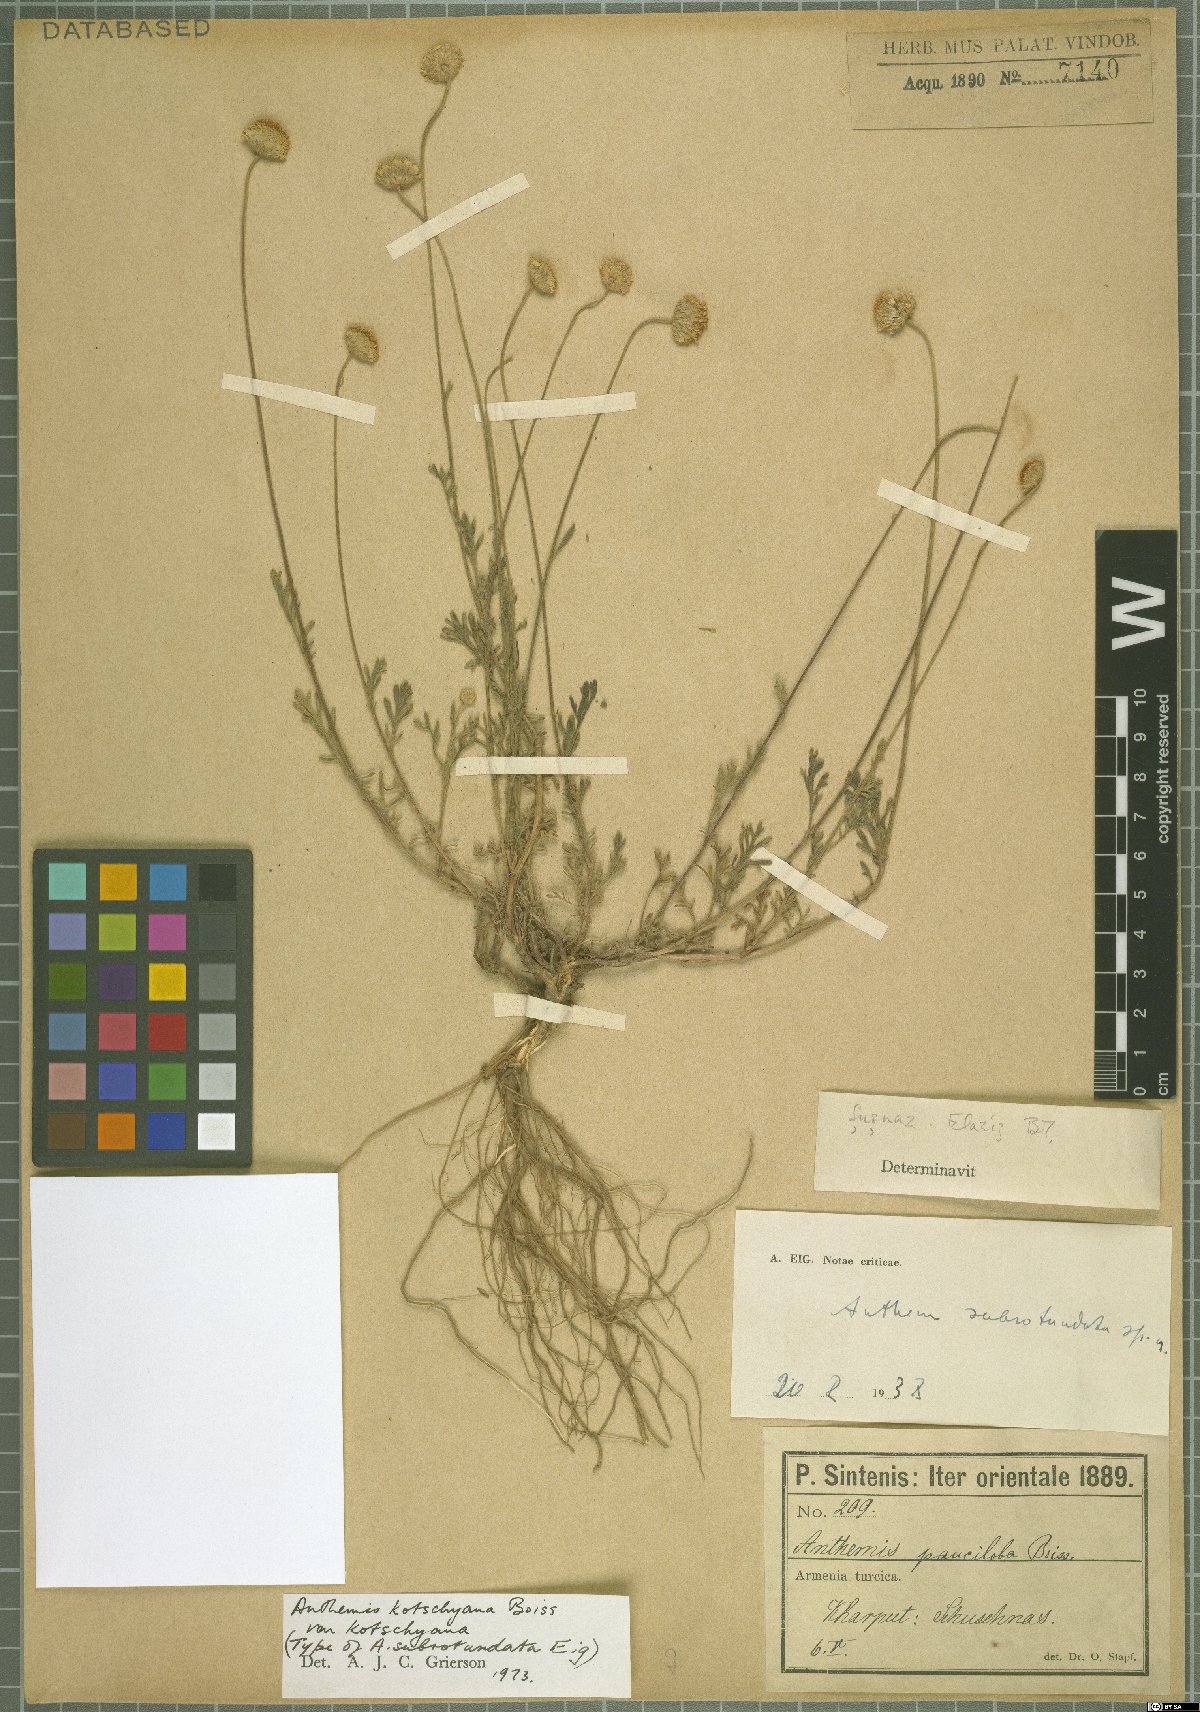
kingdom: Plantae
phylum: Tracheophyta
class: Magnoliopsida
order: Asterales
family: Asteraceae
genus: Anthemis
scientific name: Anthemis kotschyana
